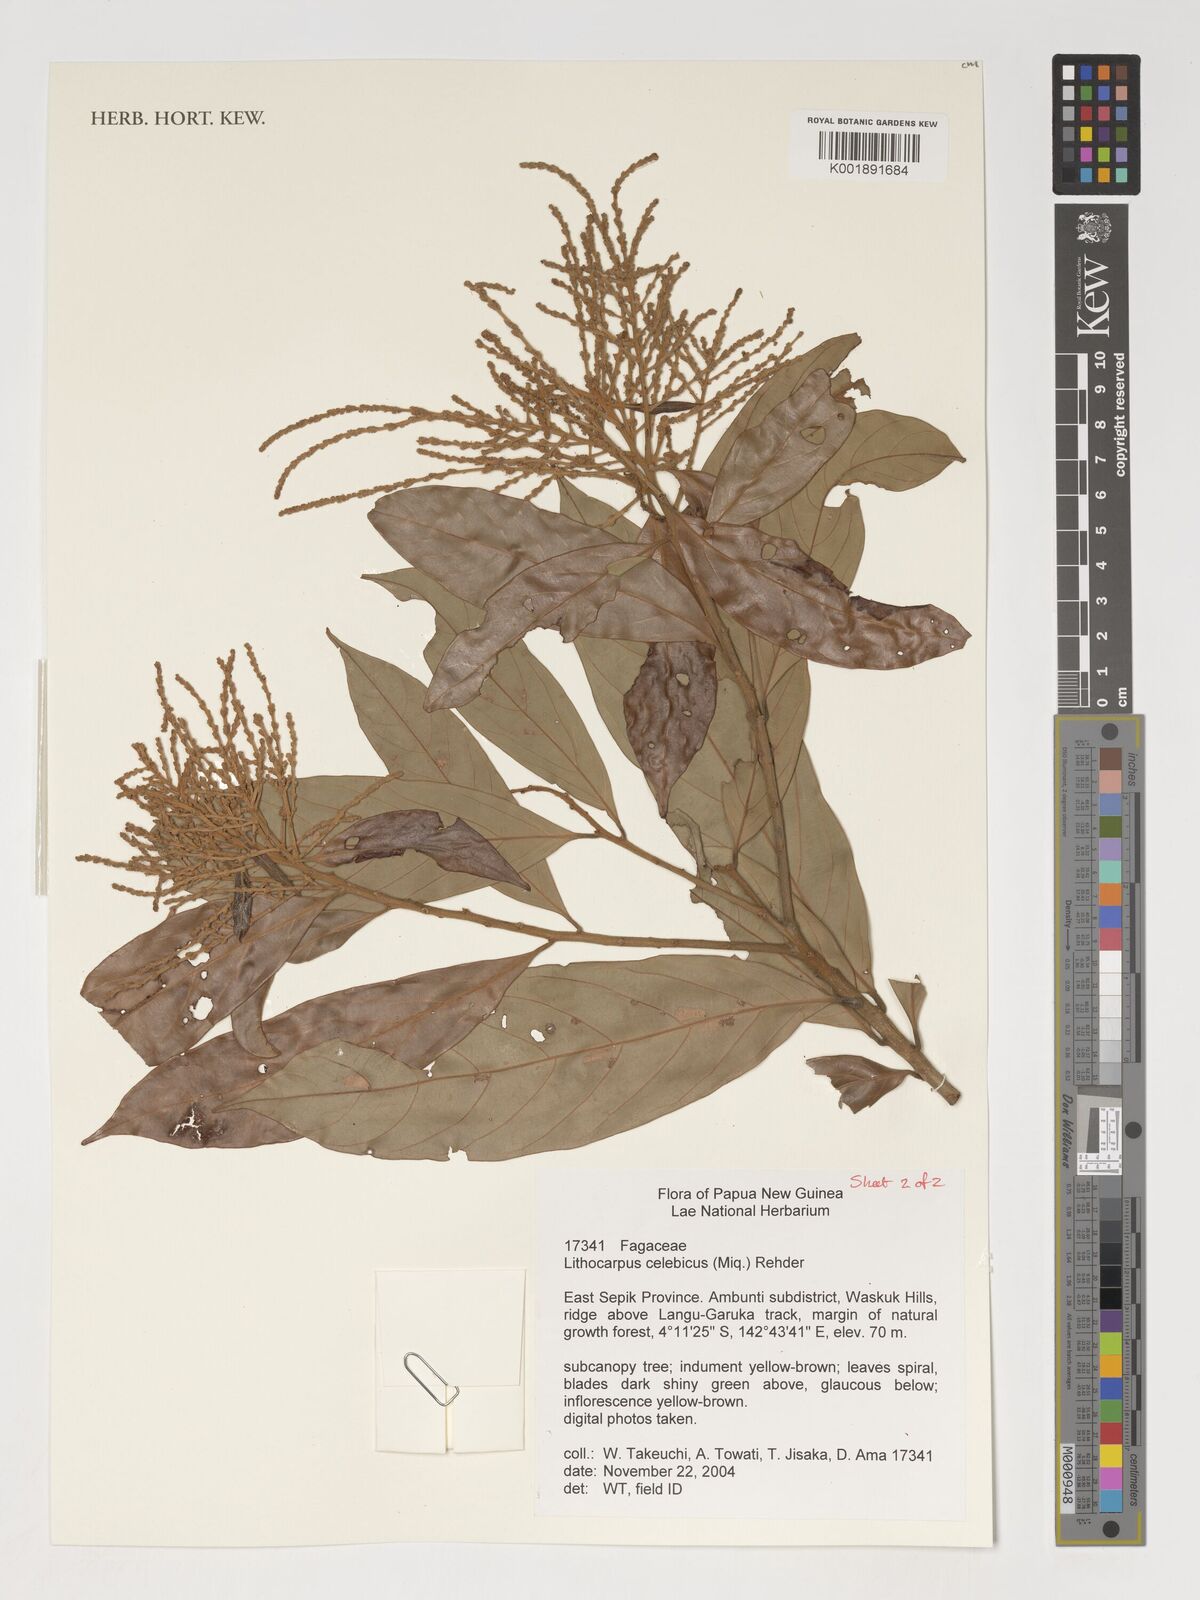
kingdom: Plantae
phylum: Tracheophyta
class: Magnoliopsida
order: Fagales
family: Fagaceae
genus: Lithocarpus
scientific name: Lithocarpus celebicus
